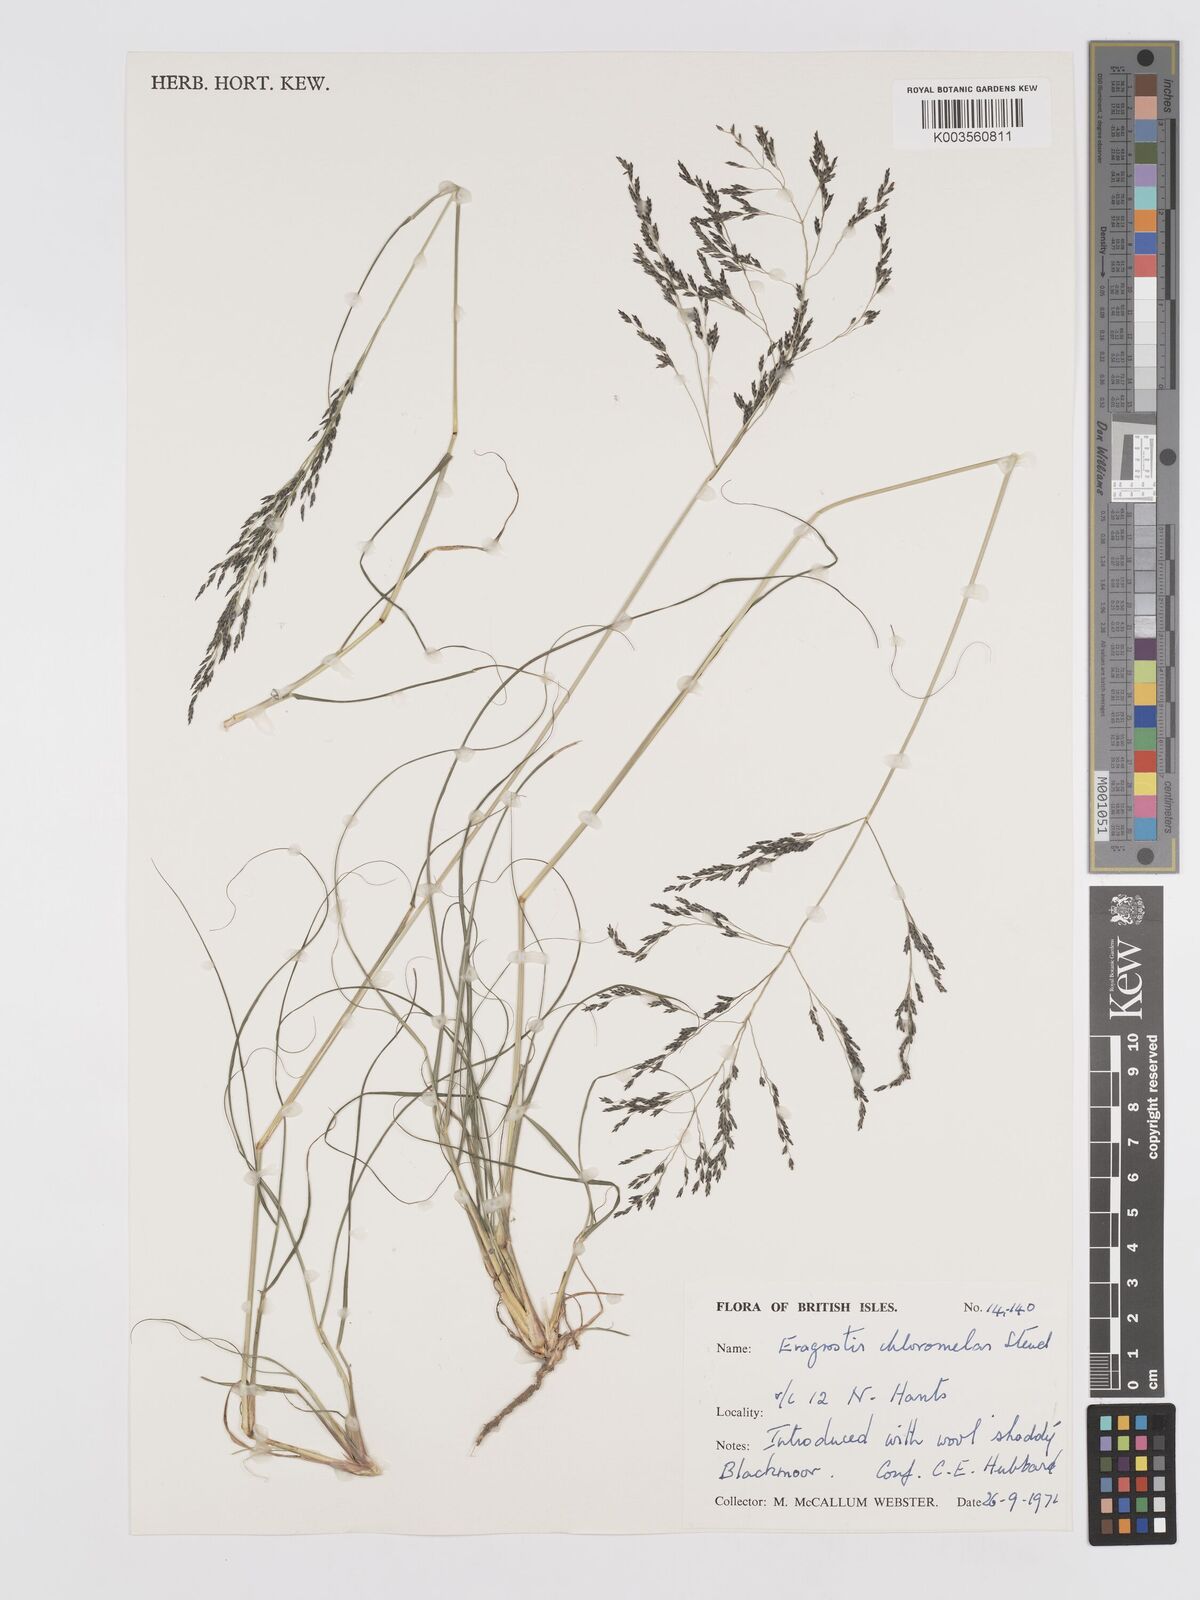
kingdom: Plantae
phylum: Tracheophyta
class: Liliopsida
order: Poales
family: Poaceae
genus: Eragrostis
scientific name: Eragrostis curvula
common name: African love-grass
